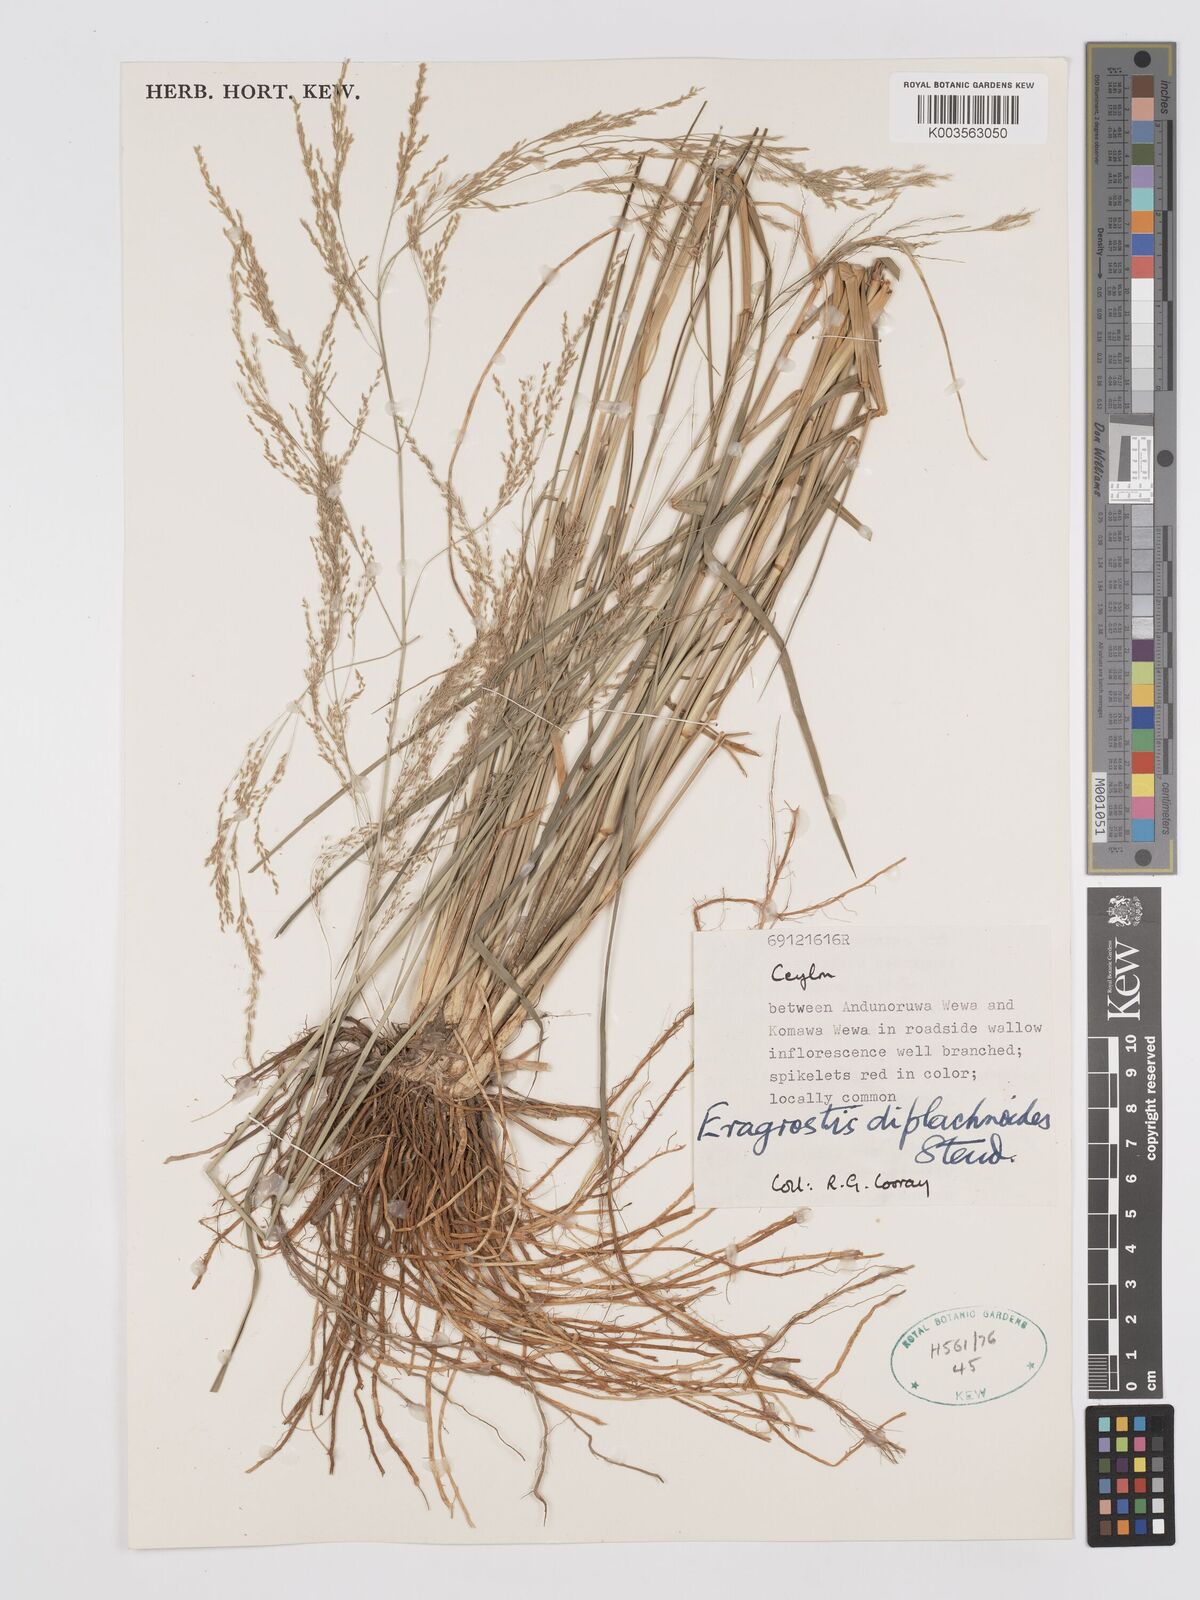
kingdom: Plantae
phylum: Tracheophyta
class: Liliopsida
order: Poales
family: Poaceae
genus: Eragrostis
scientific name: Eragrostis japonica
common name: Pond lovegrass
